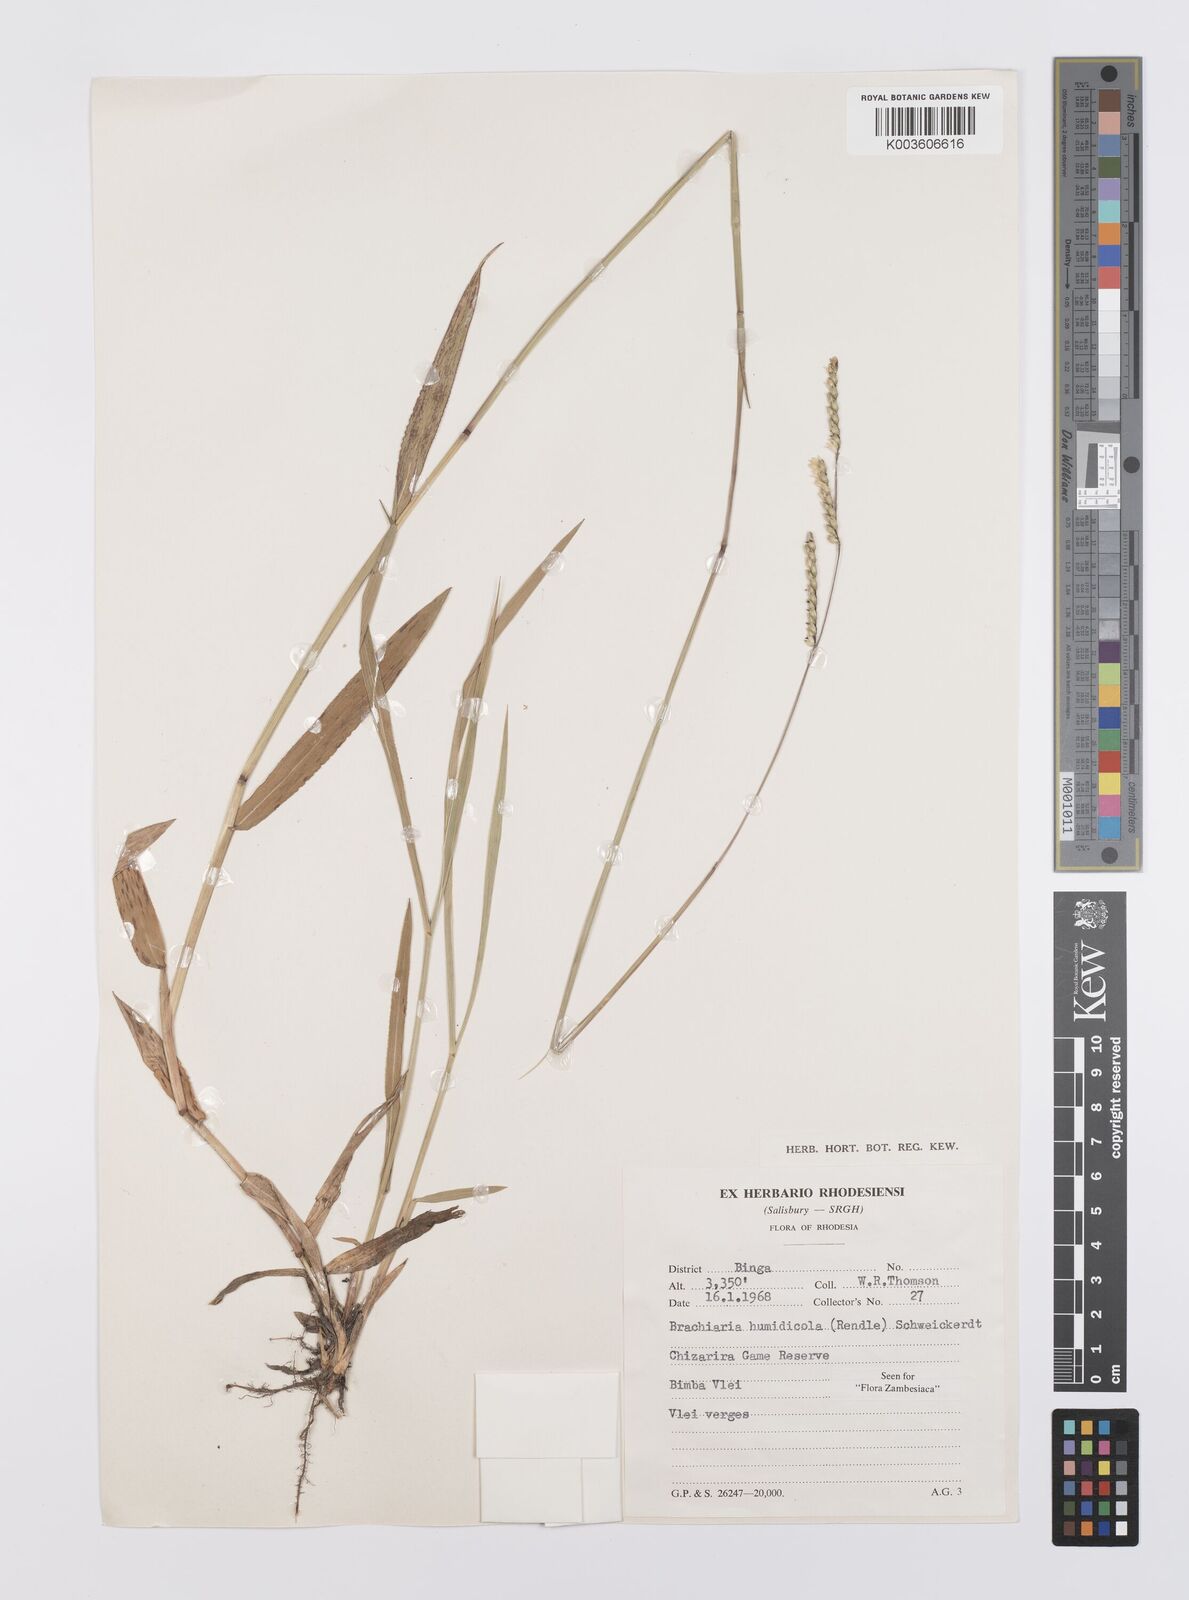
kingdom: Plantae
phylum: Tracheophyta
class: Liliopsida
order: Poales
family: Poaceae
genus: Urochloa
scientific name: Urochloa dictyoneura
